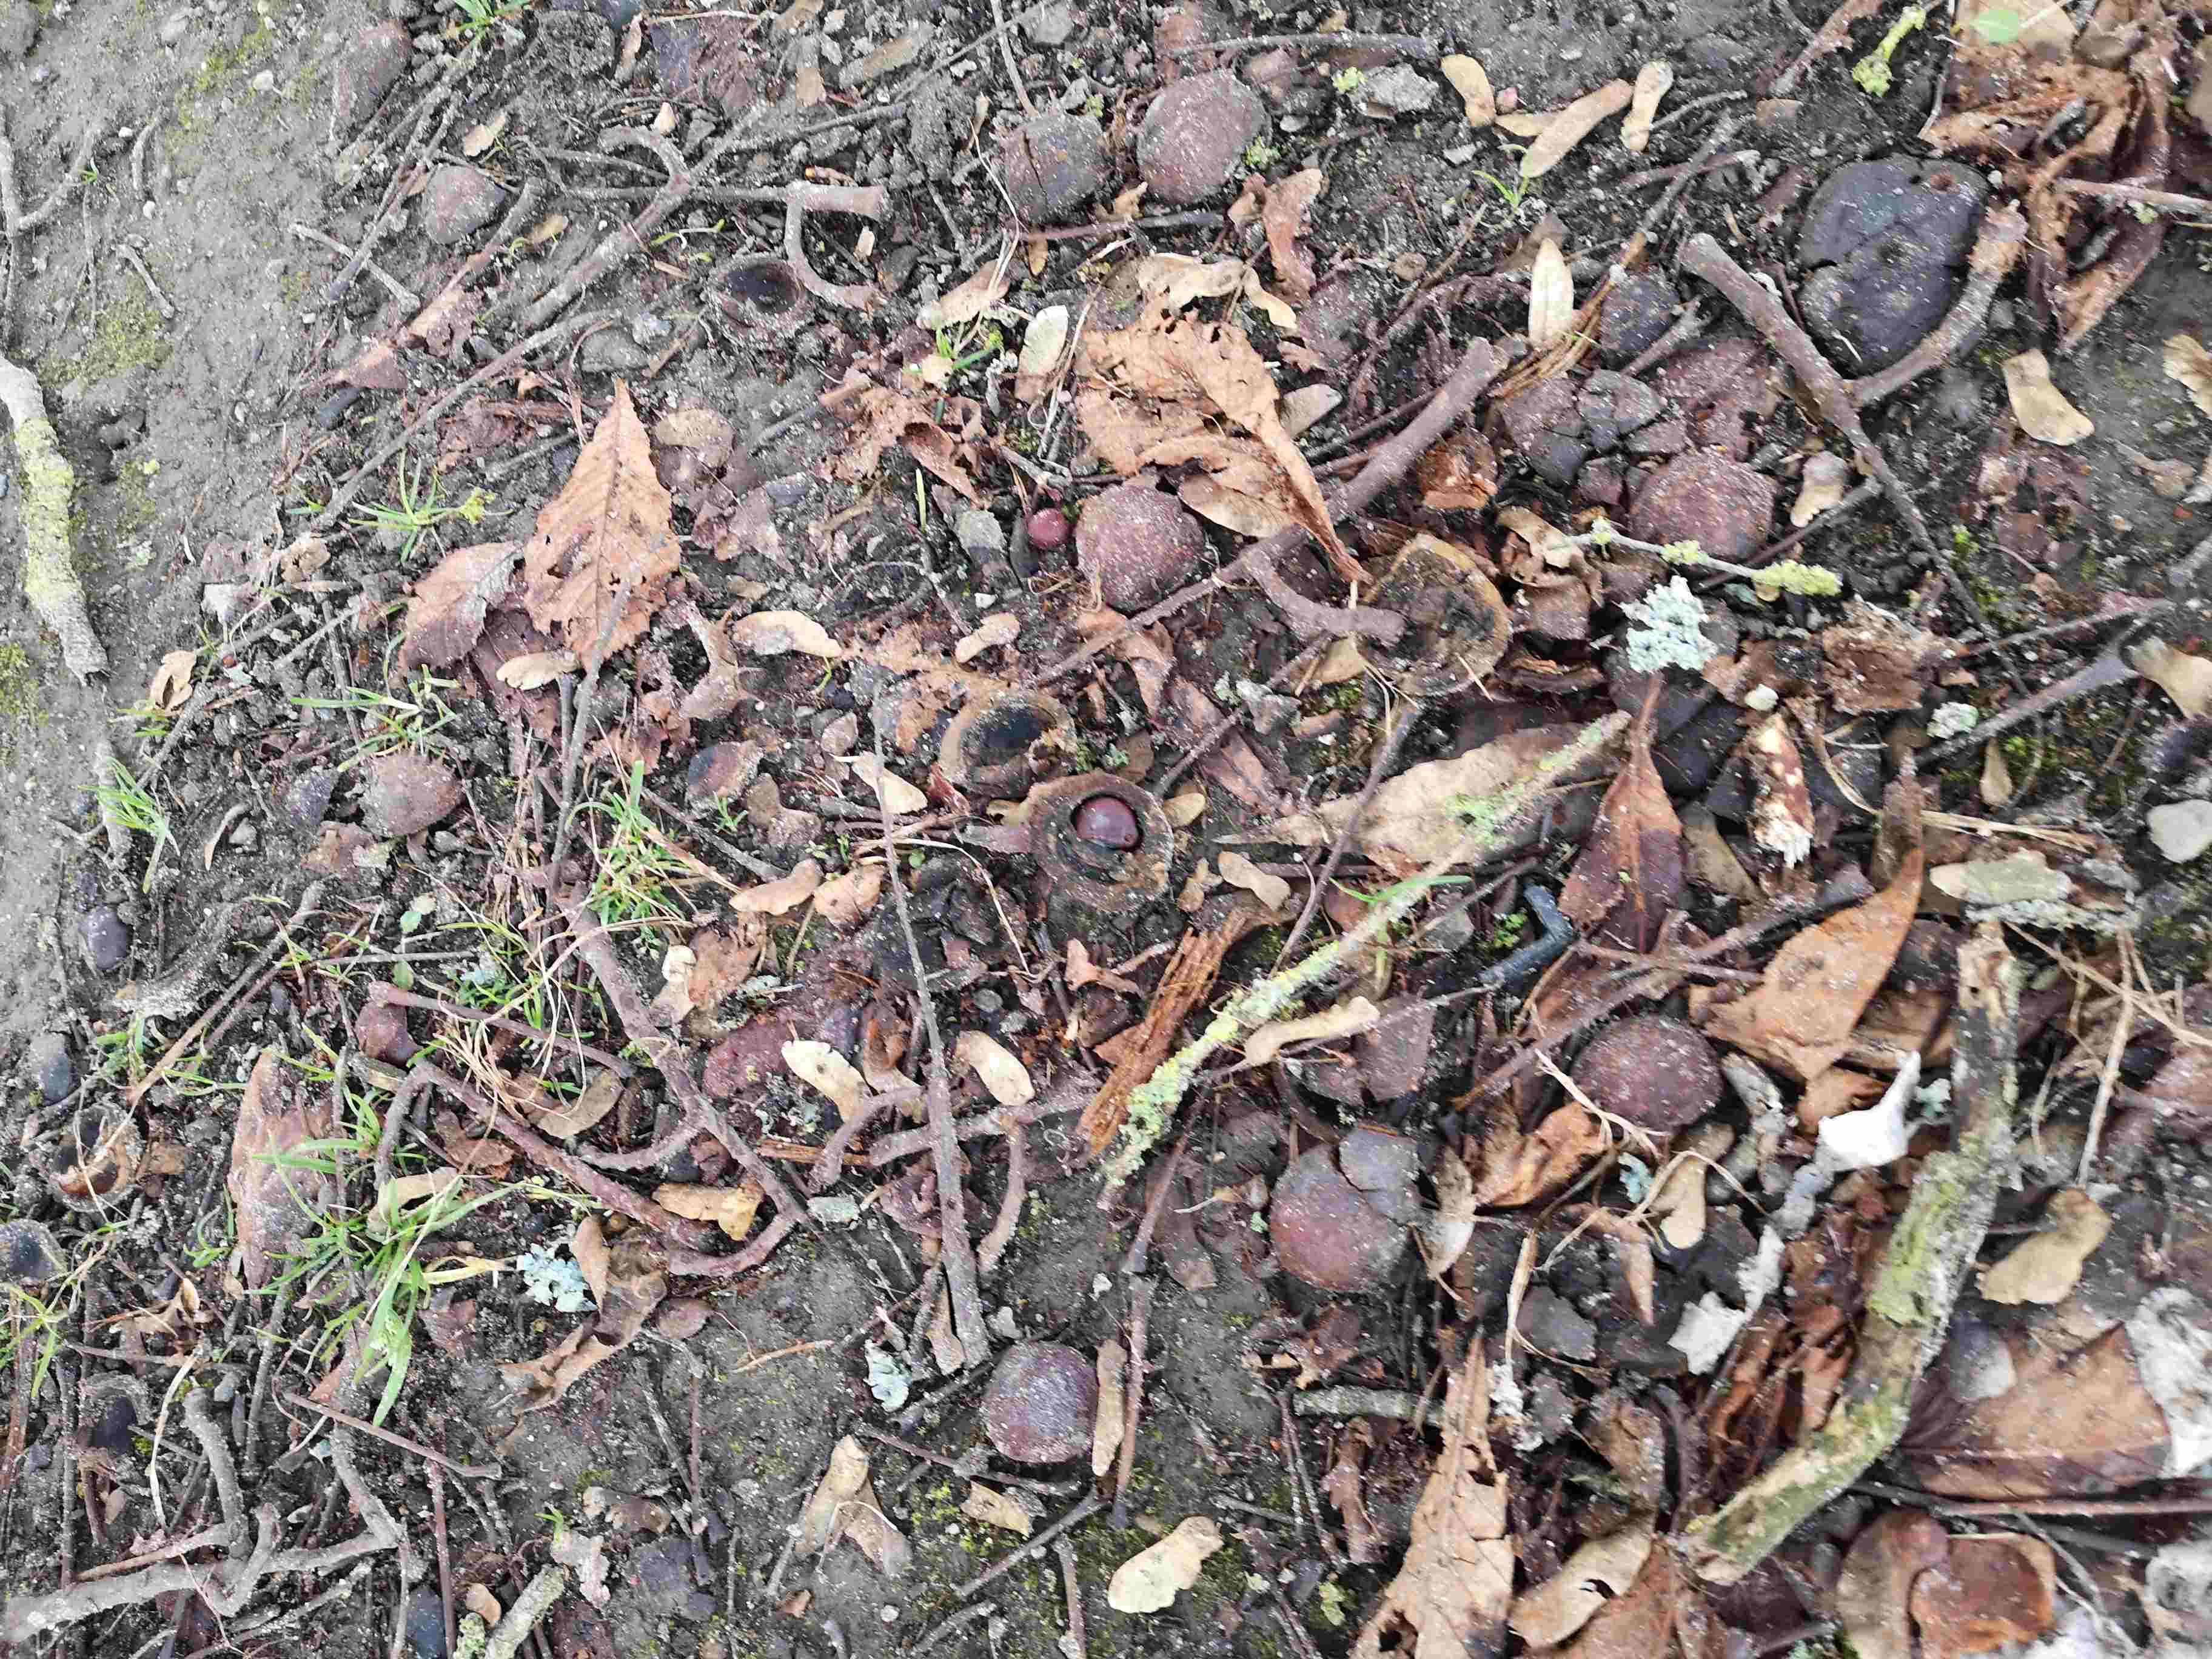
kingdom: Fungi
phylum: Basidiomycota
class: Agaricomycetes
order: Agaricales
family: Pleurotaceae
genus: Pleurotus
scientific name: Pleurotus ostreatus
